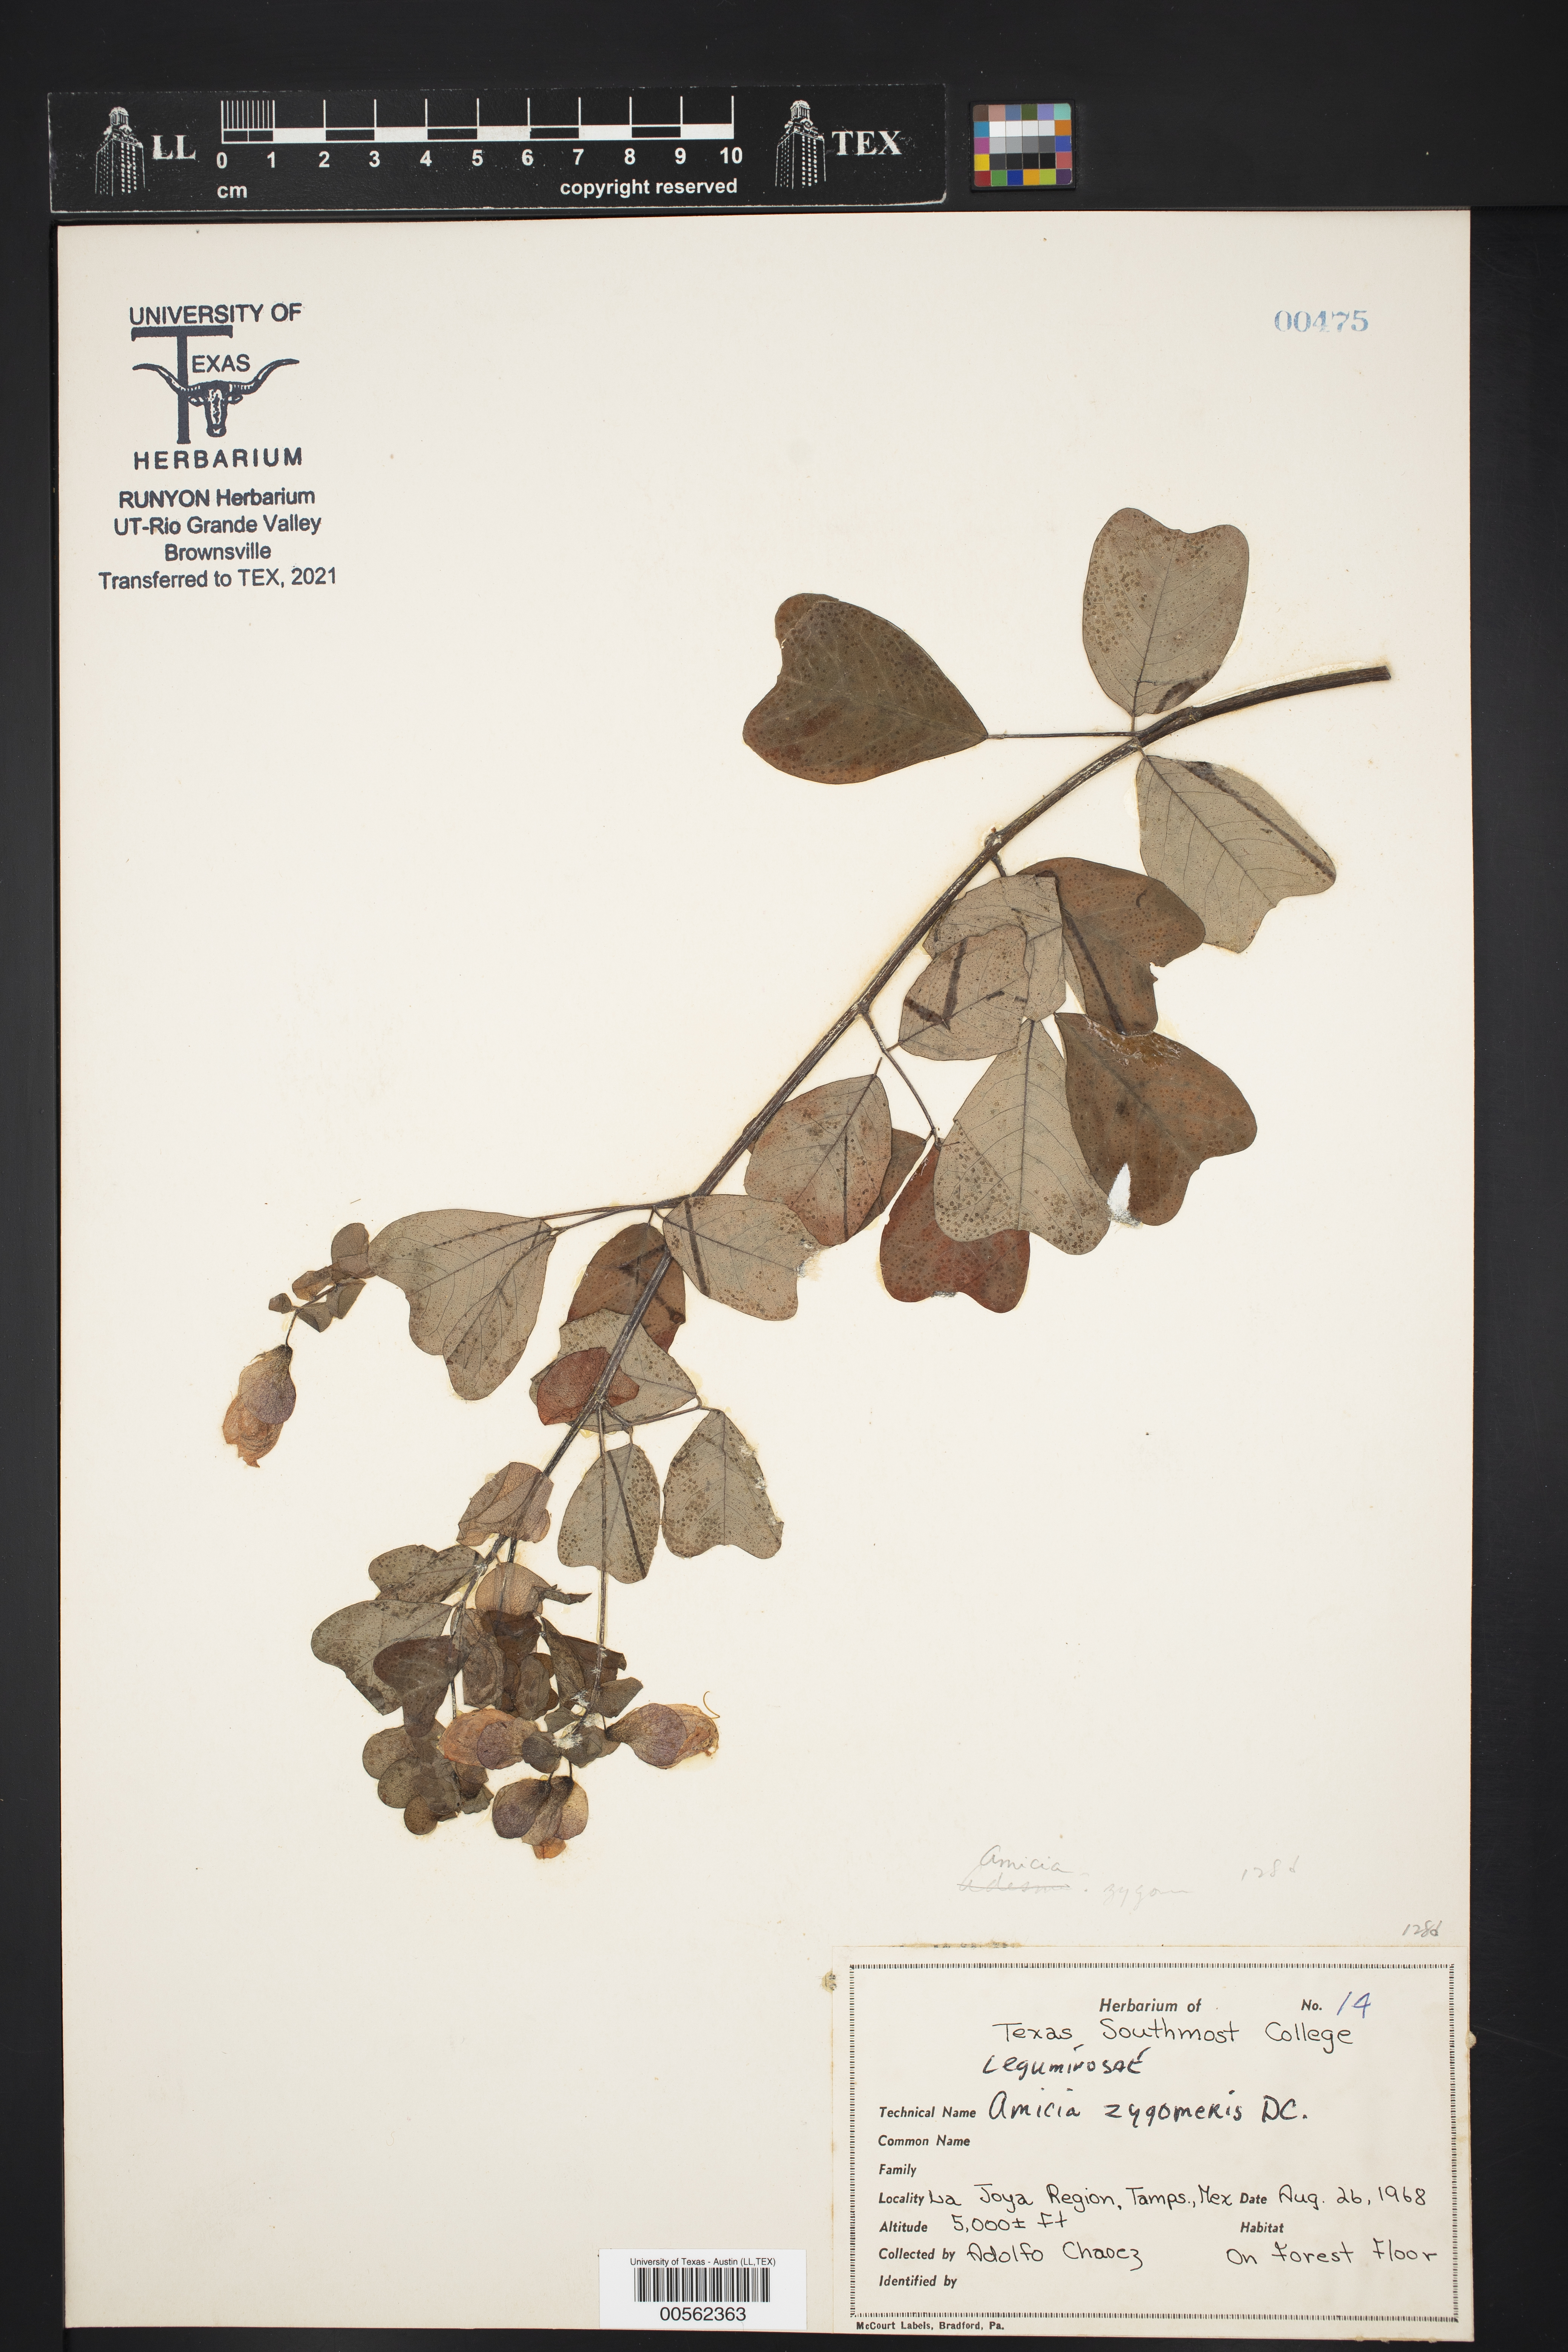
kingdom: Plantae
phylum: Tracheophyta
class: Magnoliopsida
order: Fabales
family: Fabaceae
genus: Amicia
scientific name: Amicia zygomeris
